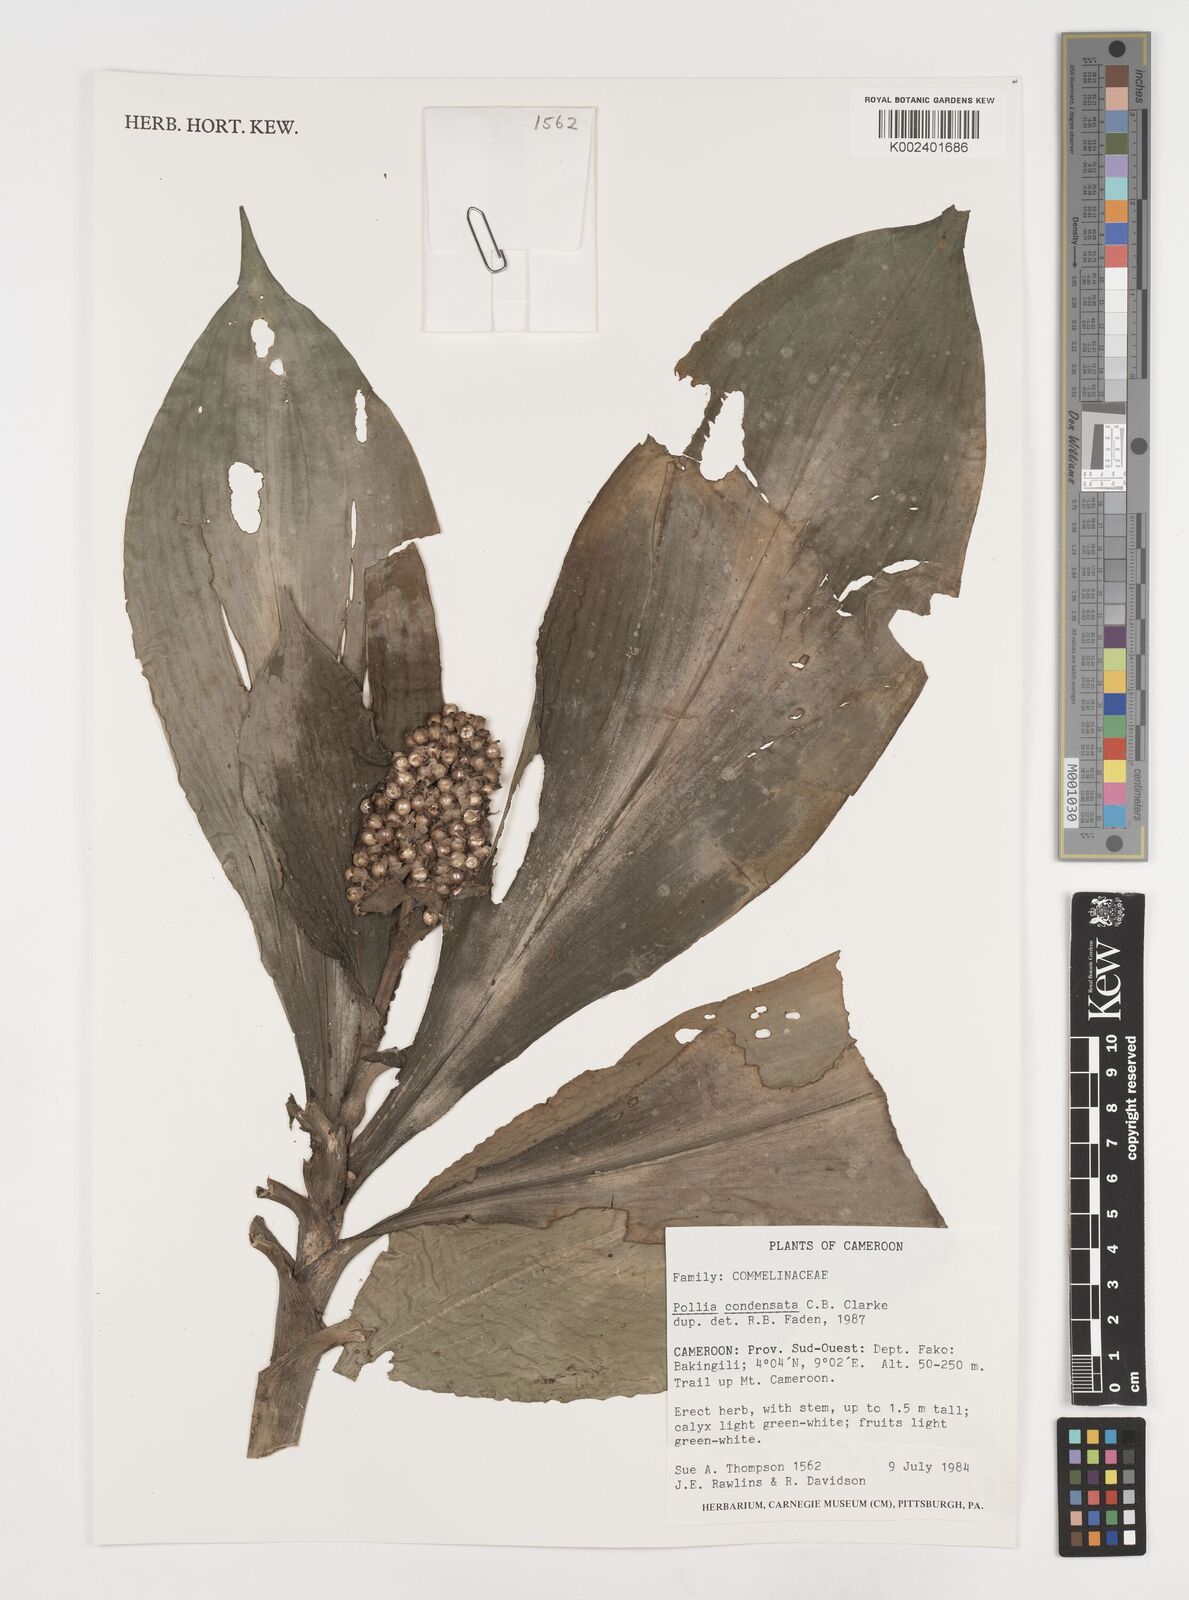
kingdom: Plantae
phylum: Tracheophyta
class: Liliopsida
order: Commelinales
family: Commelinaceae
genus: Pollia
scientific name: Pollia condensata
